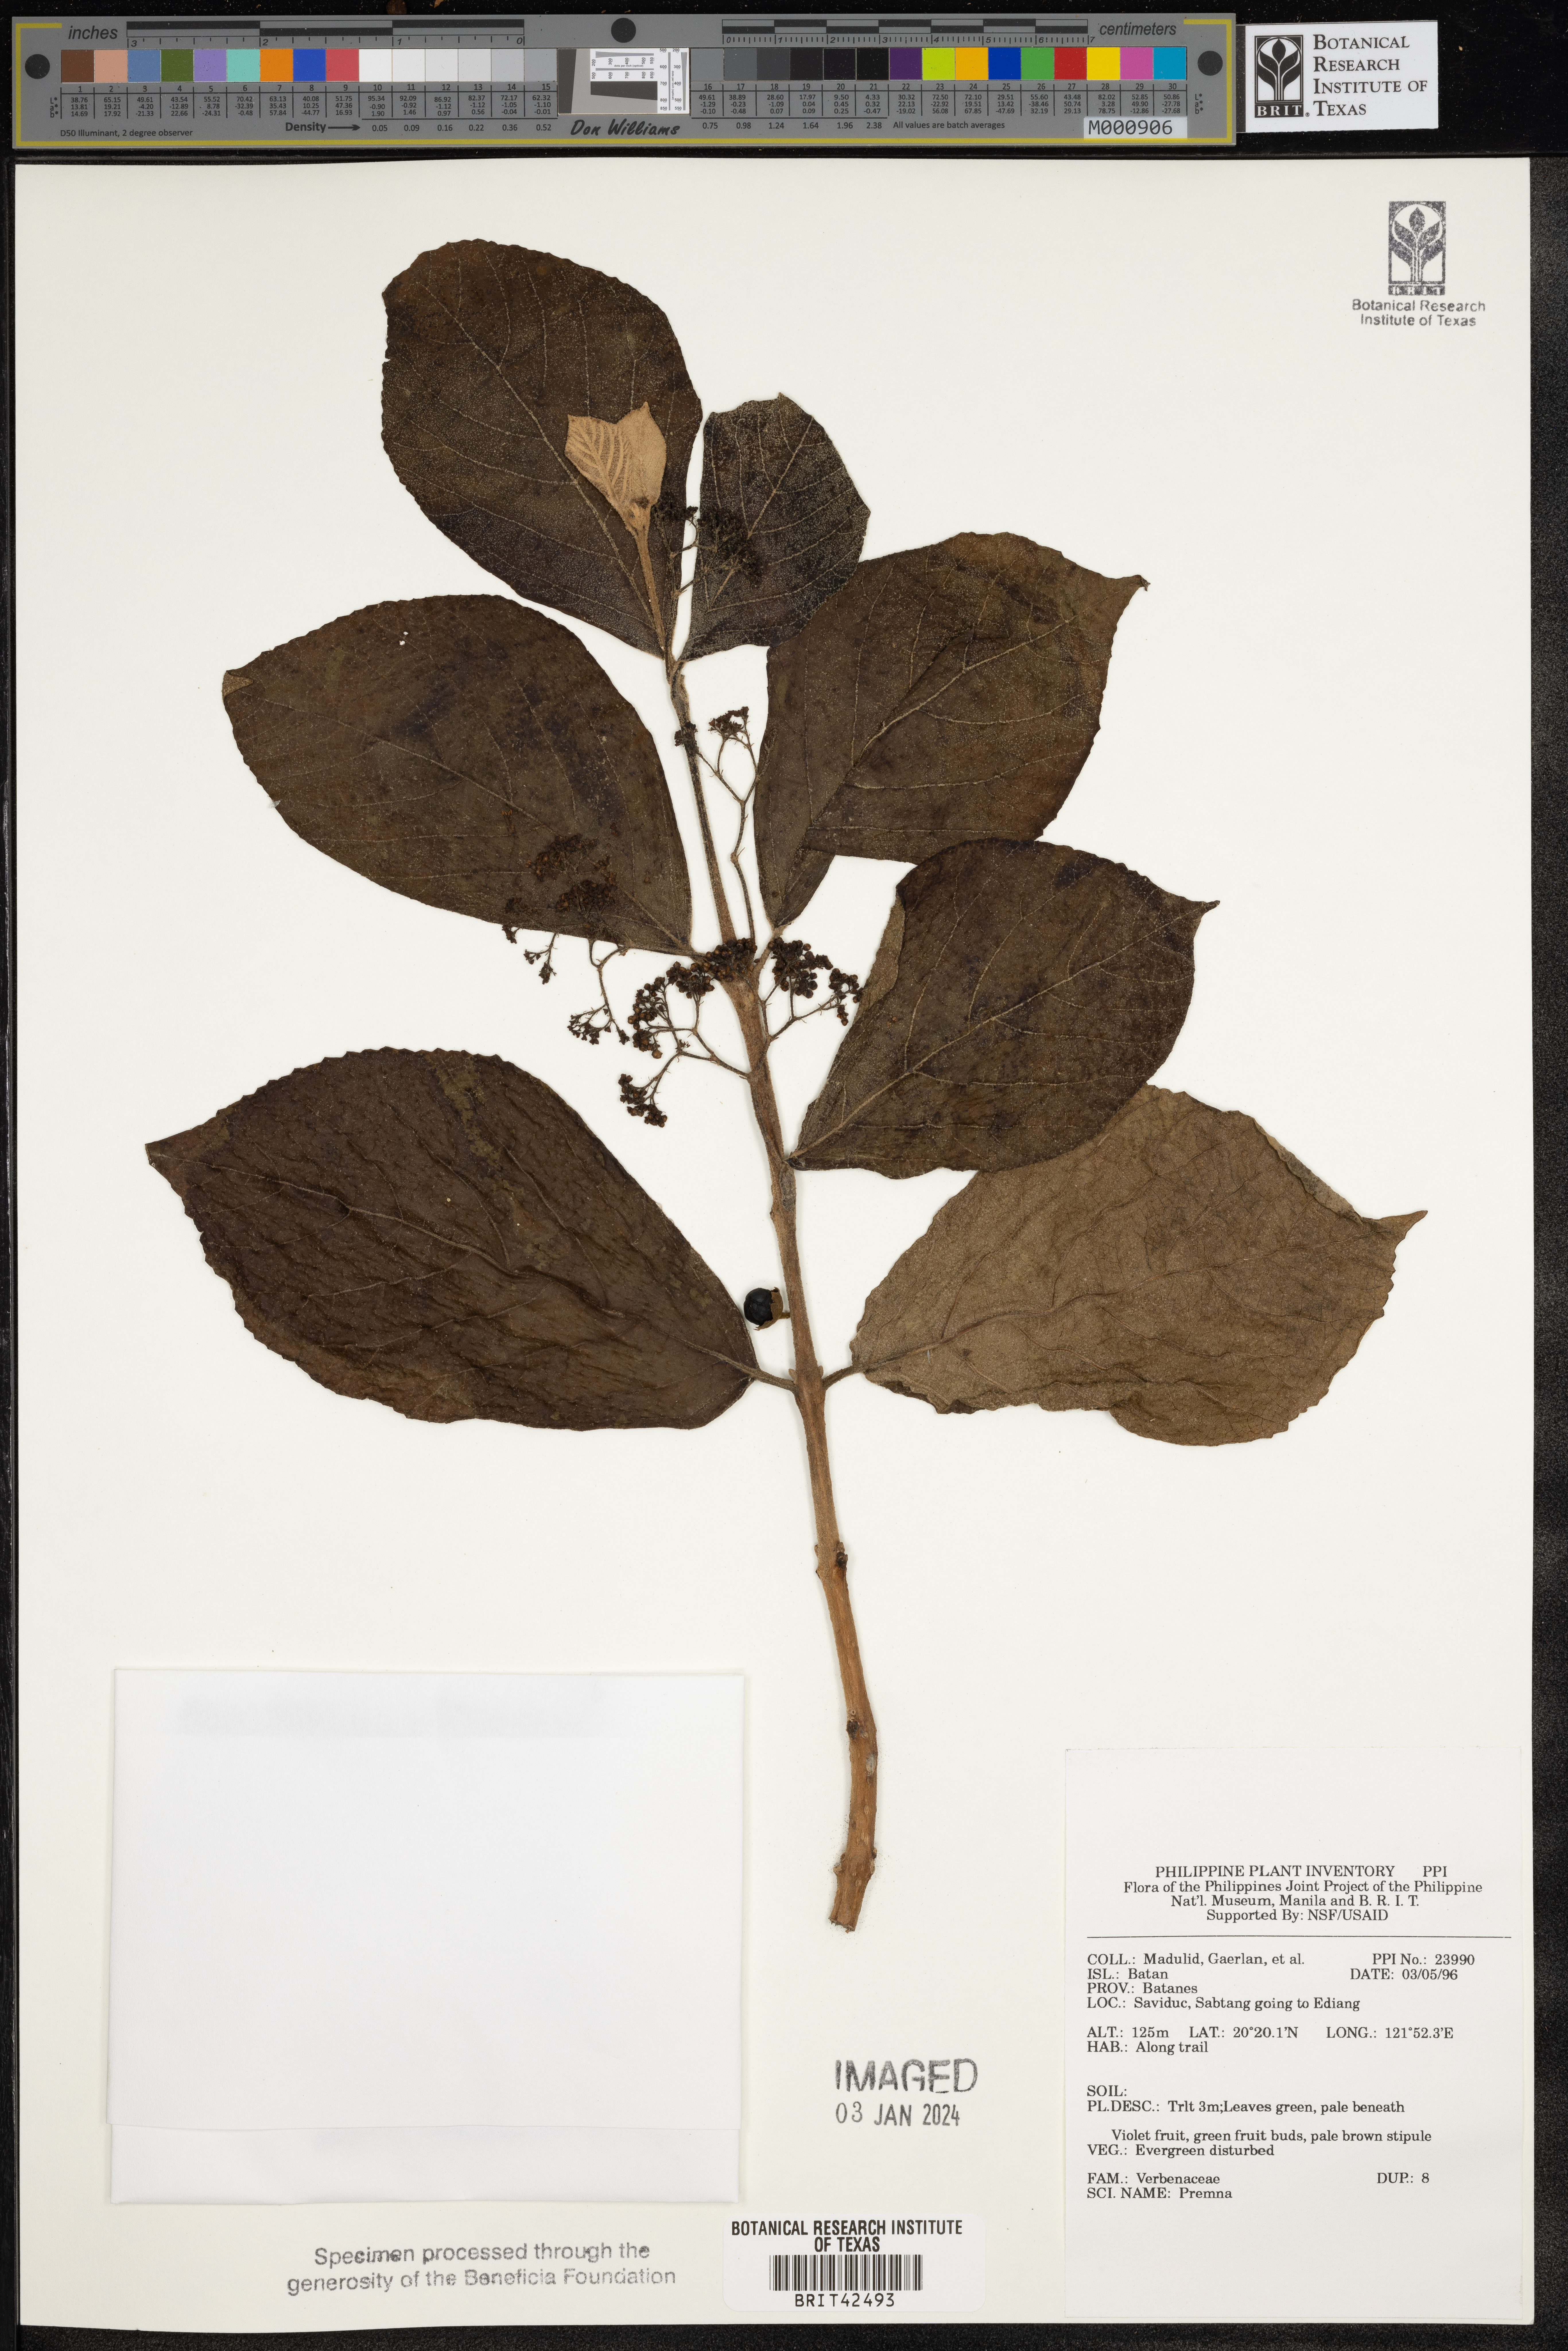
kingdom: Plantae
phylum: Tracheophyta
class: Magnoliopsida
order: Lamiales
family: Lamiaceae
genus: Premna
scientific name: Premna
